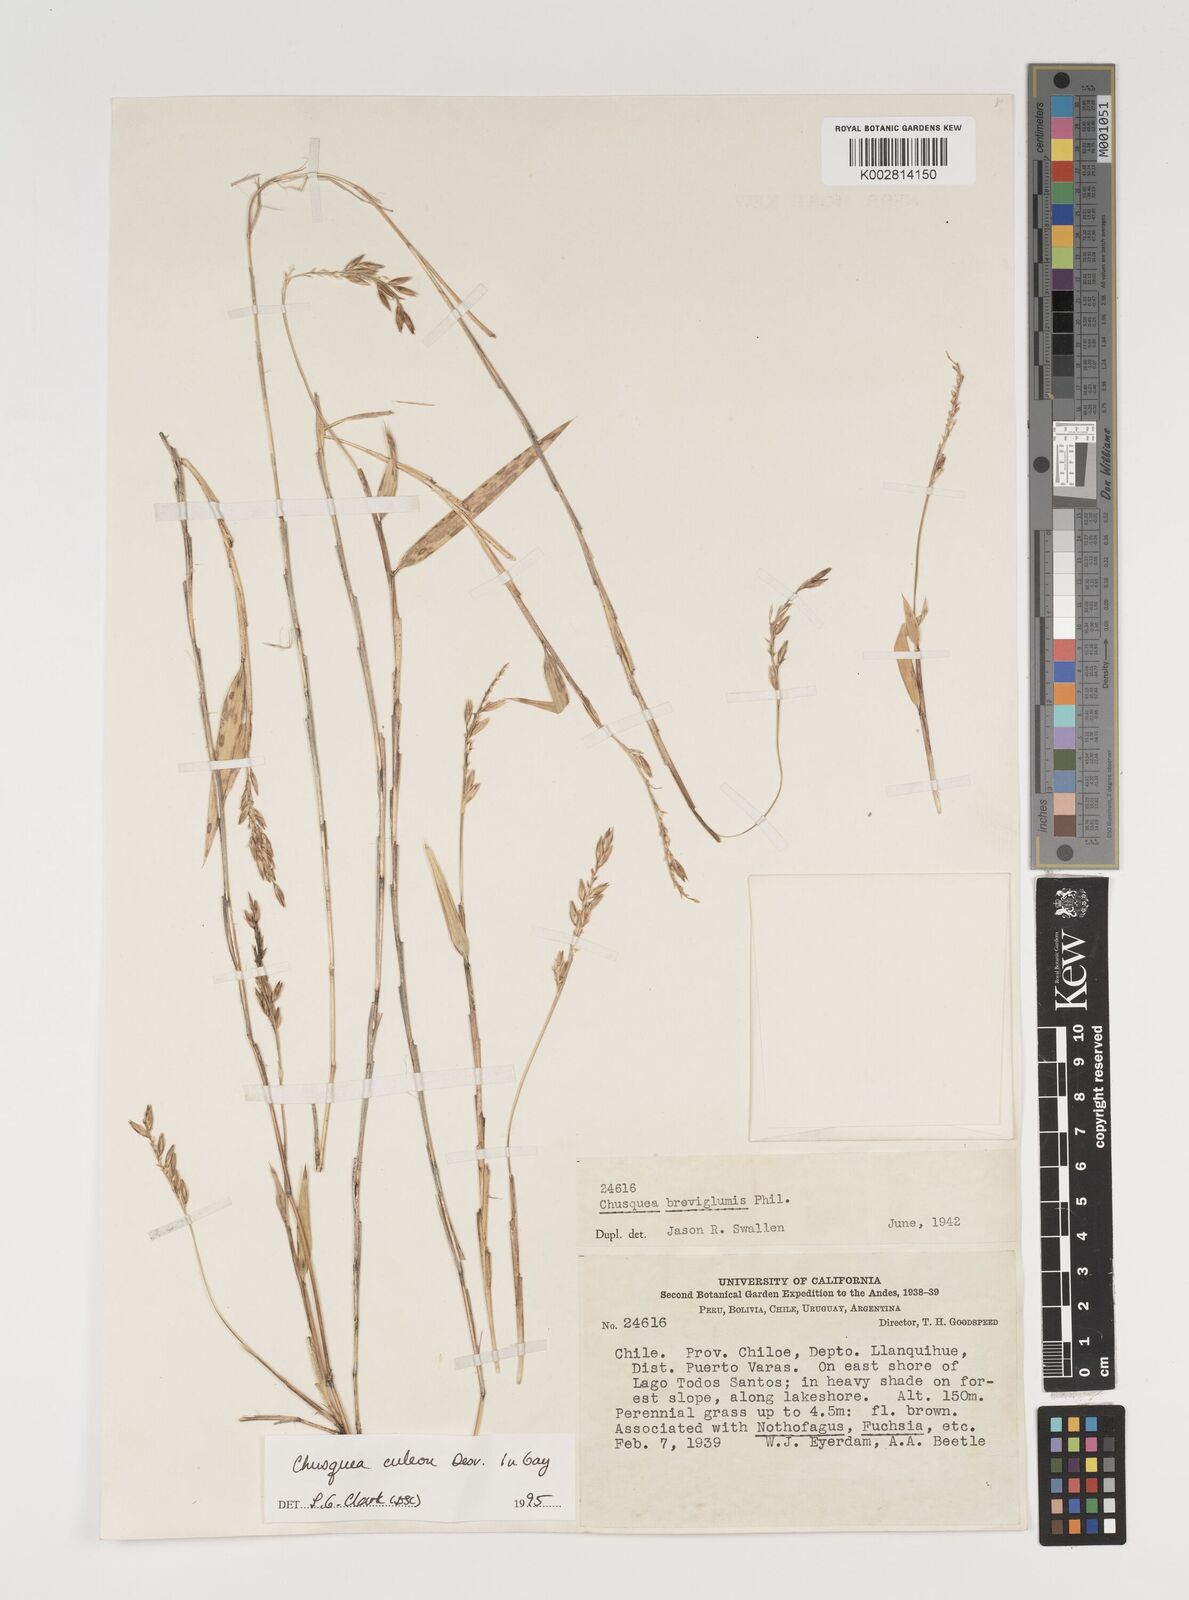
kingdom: Plantae
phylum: Tracheophyta
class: Liliopsida
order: Poales
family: Poaceae
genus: Chusquea
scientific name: Chusquea culeou
